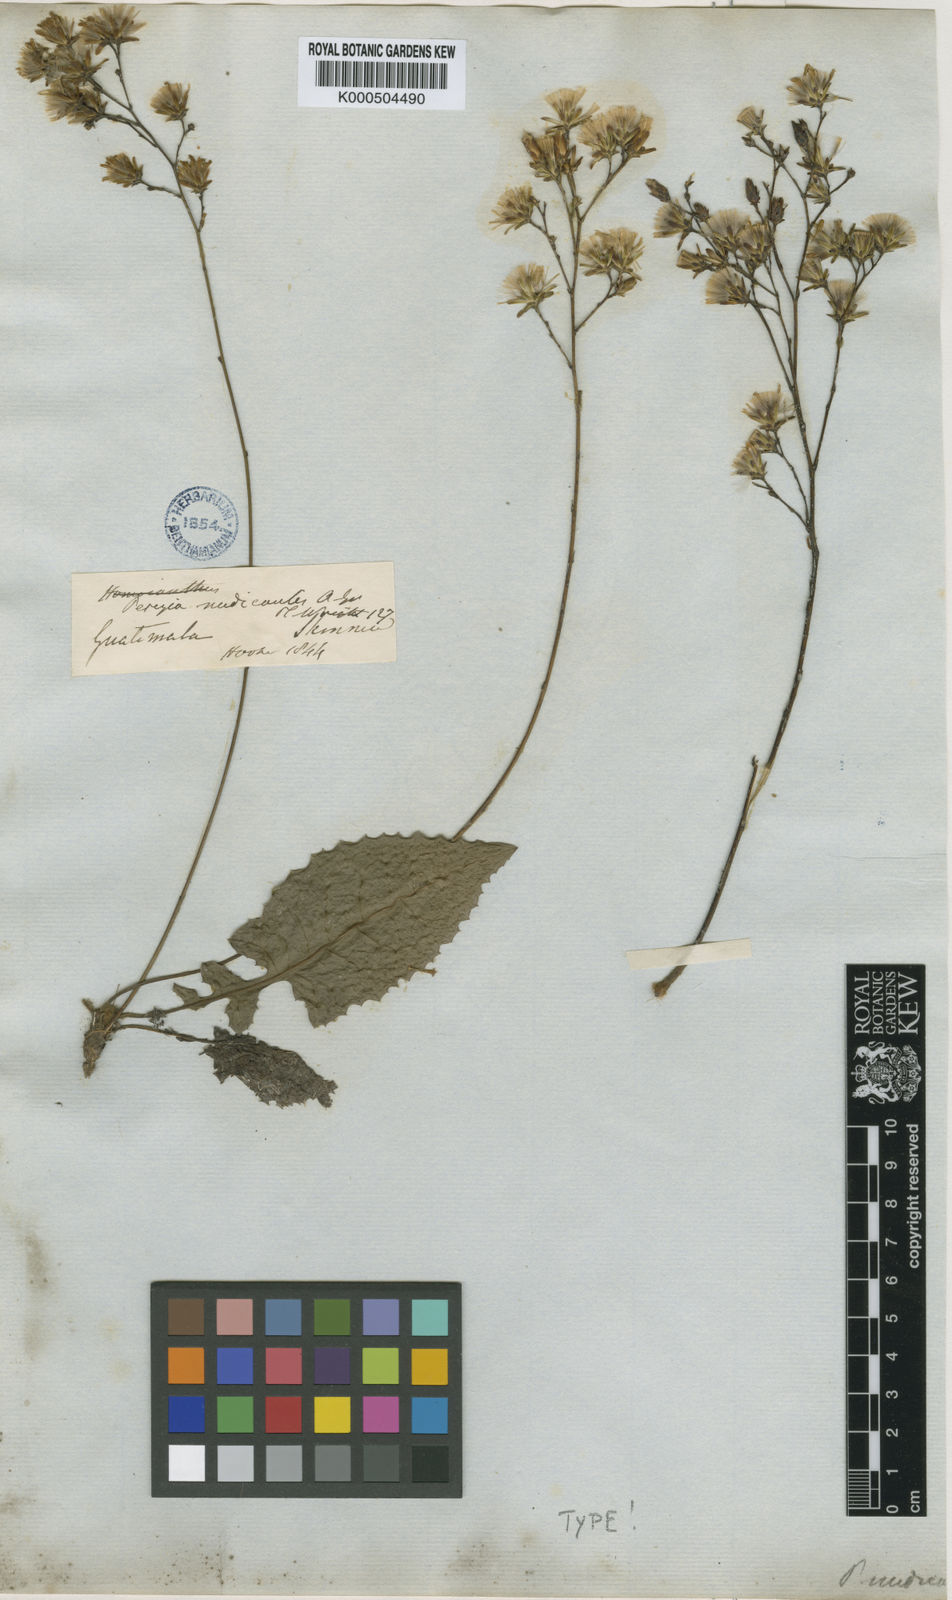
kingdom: Plantae
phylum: Tracheophyta
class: Magnoliopsida
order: Asterales
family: Asteraceae
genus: Acourtia
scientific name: Acourtia nudicaulis
